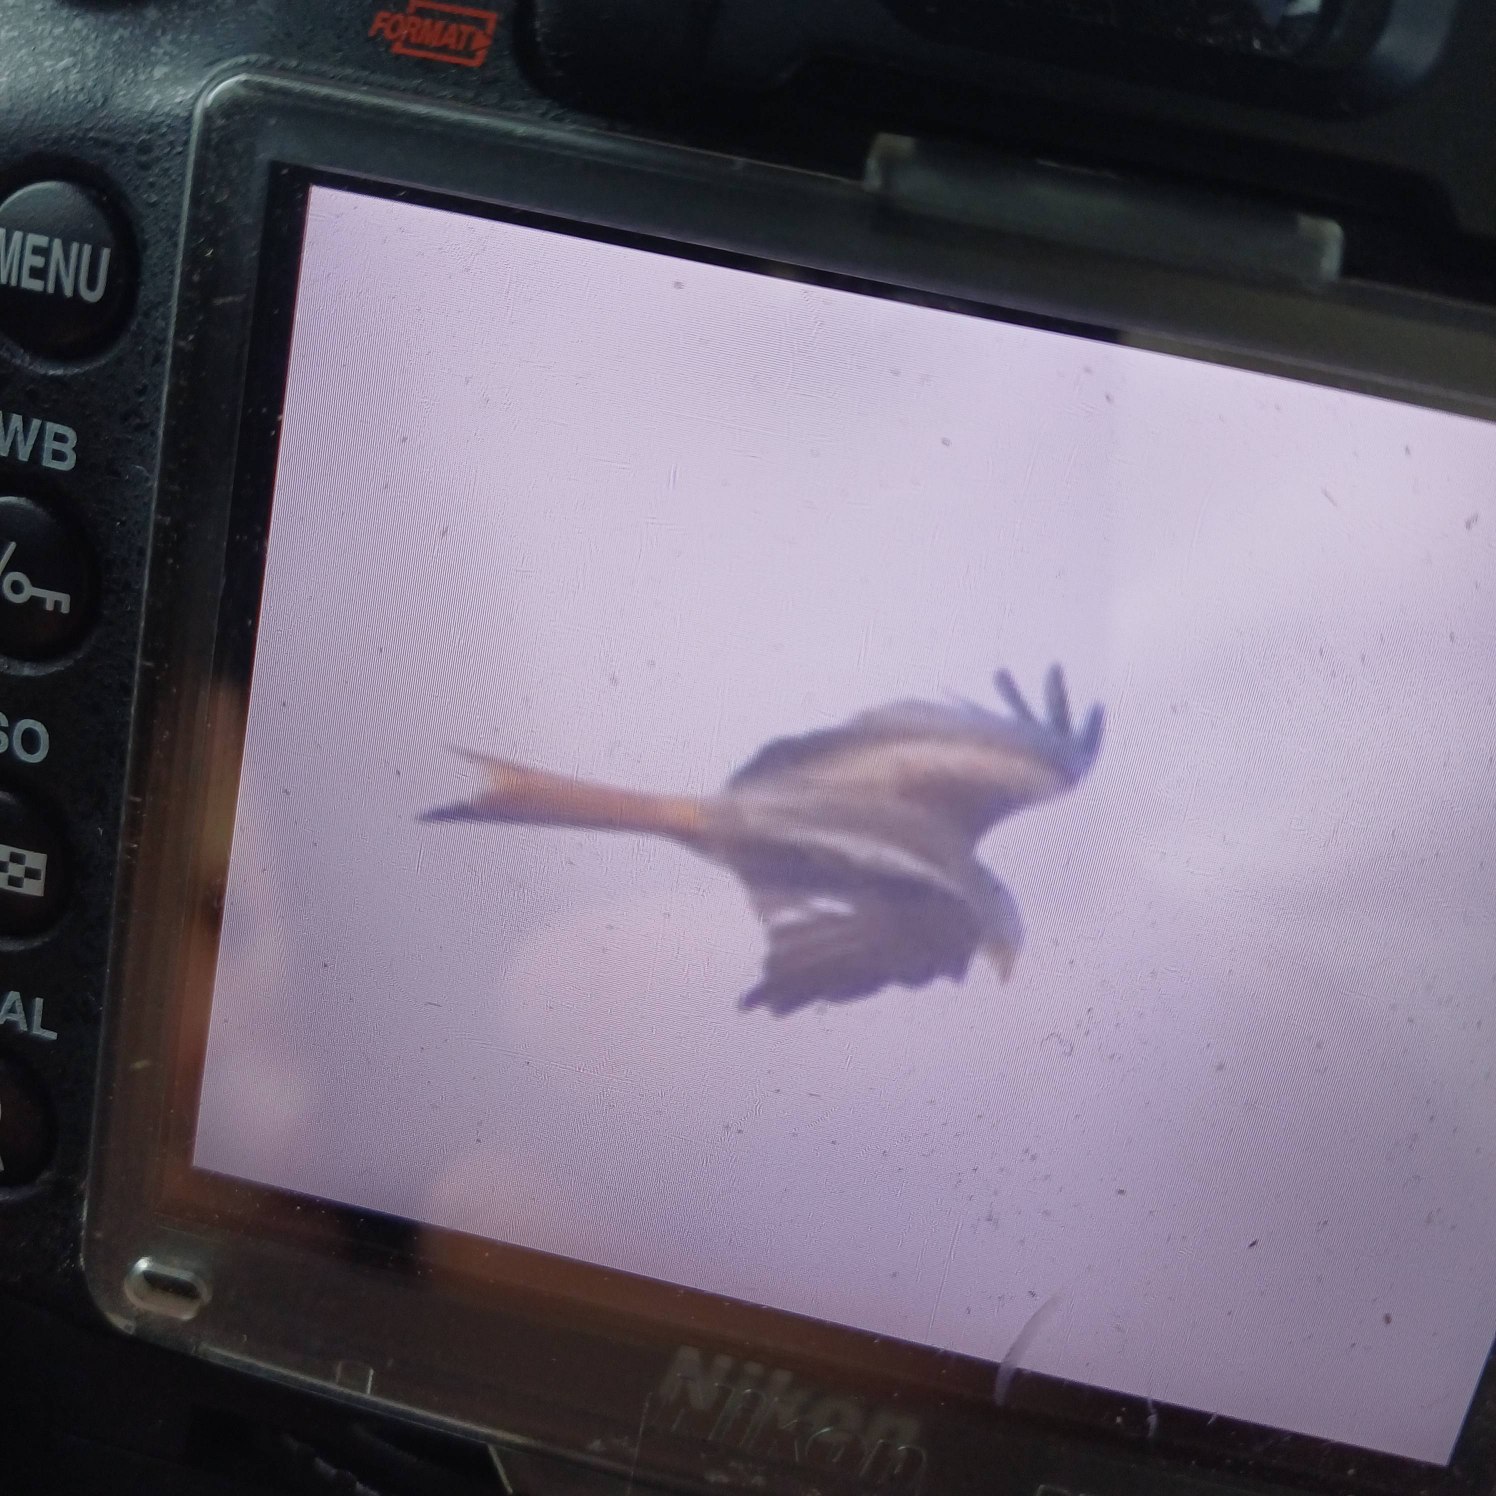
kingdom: Animalia
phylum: Chordata
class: Aves
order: Accipitriformes
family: Accipitridae
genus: Milvus
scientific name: Milvus milvus
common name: Rød glente
